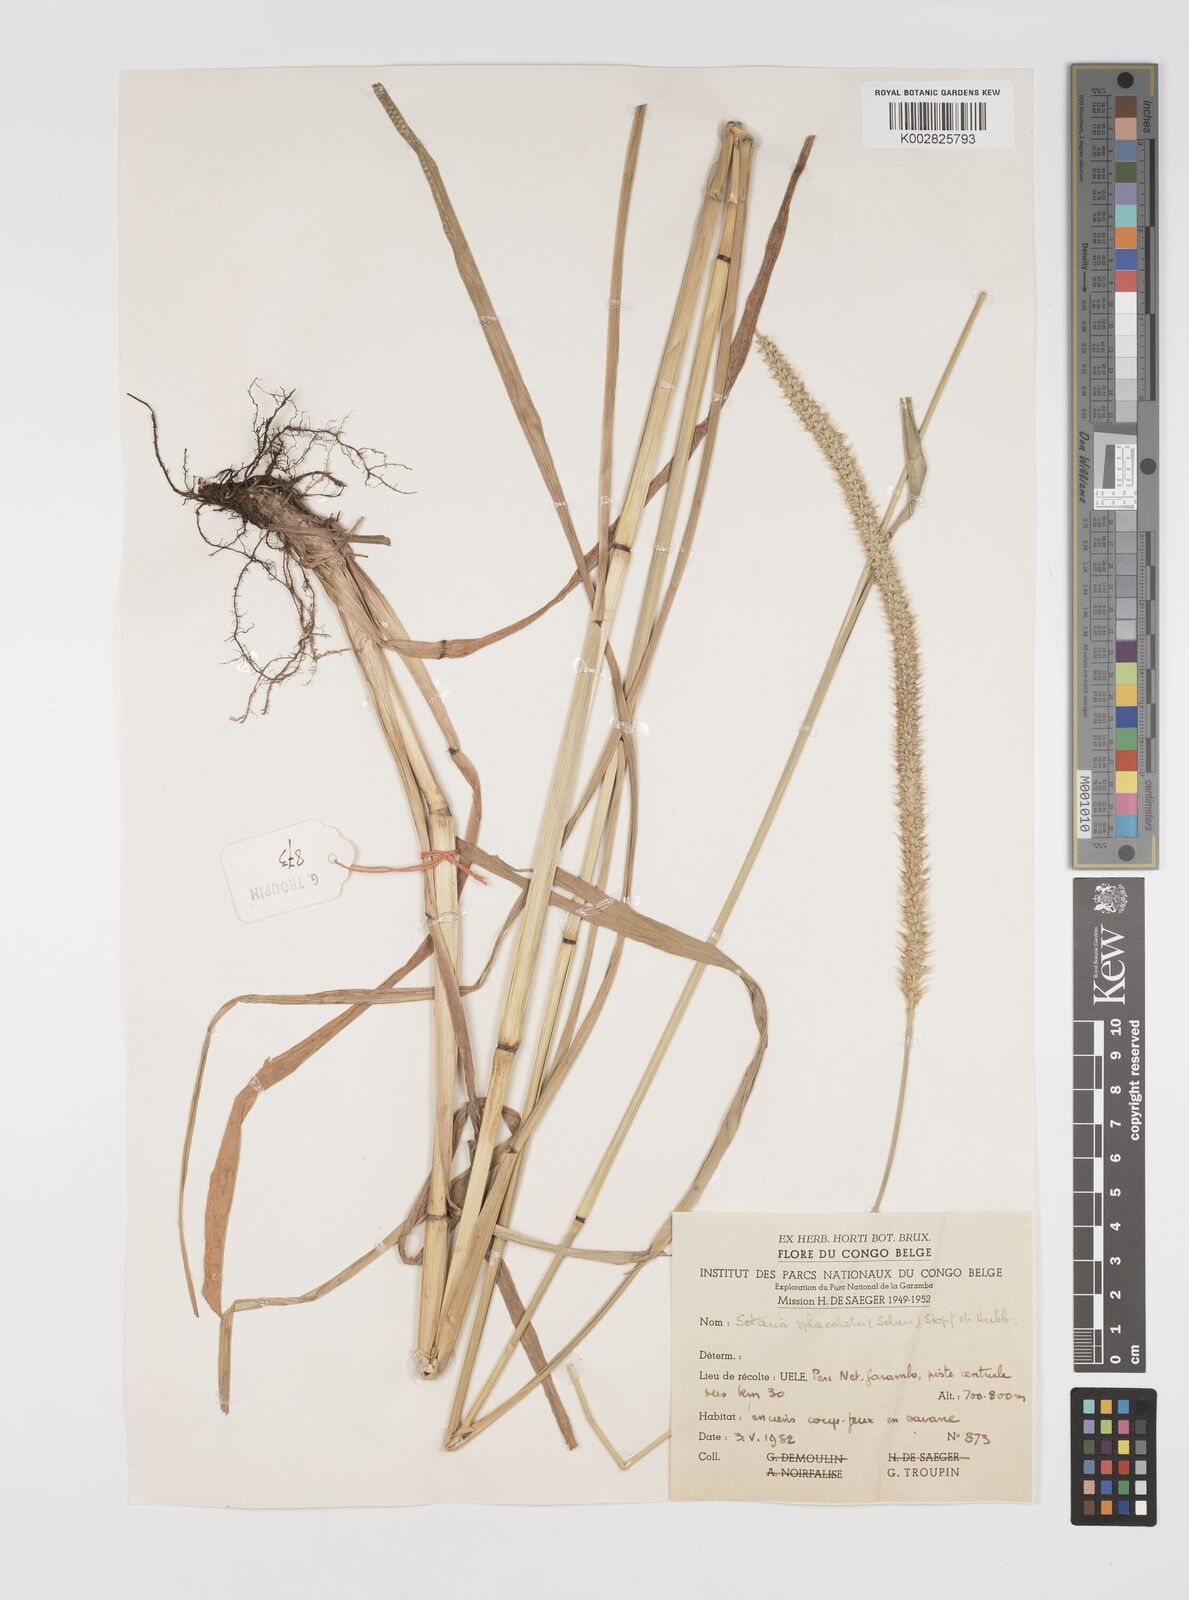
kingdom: Plantae
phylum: Tracheophyta
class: Liliopsida
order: Poales
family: Poaceae
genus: Setaria
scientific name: Setaria sphacelata
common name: African bristlegrass
